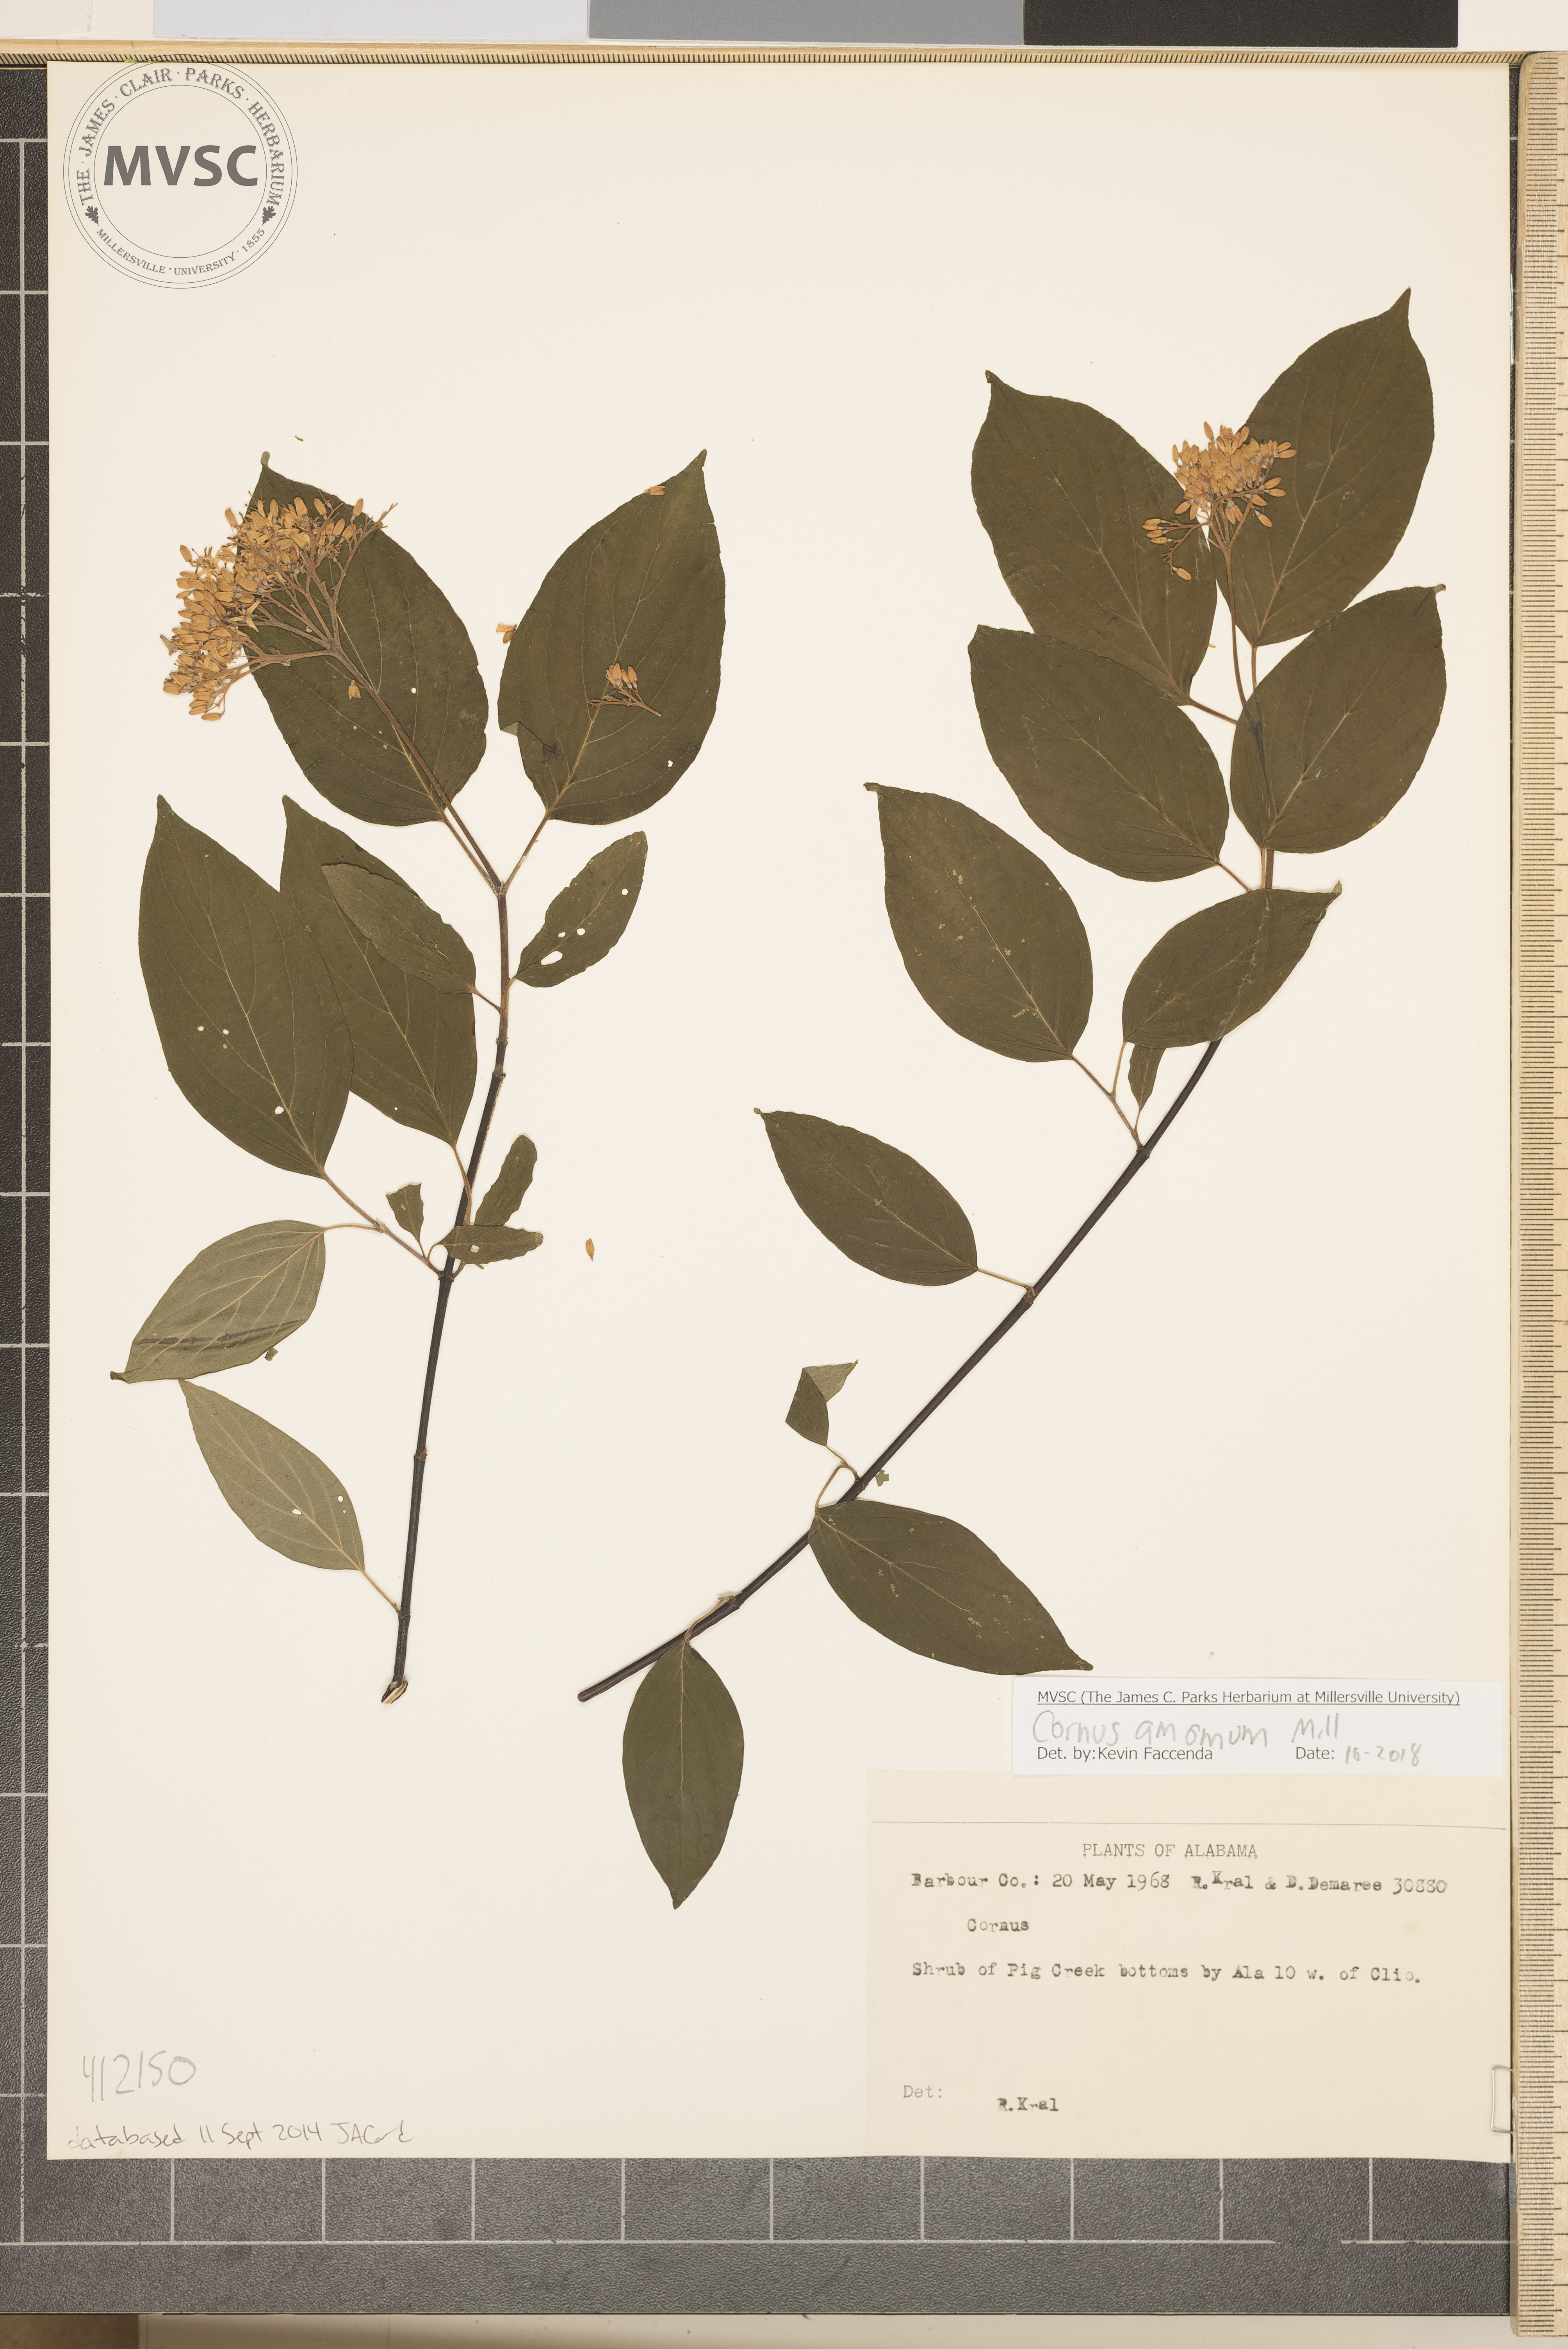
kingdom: Plantae
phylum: Tracheophyta
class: Magnoliopsida
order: Cornales
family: Cornaceae
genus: Cornus
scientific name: Cornus amomum
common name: Silky dogwood
